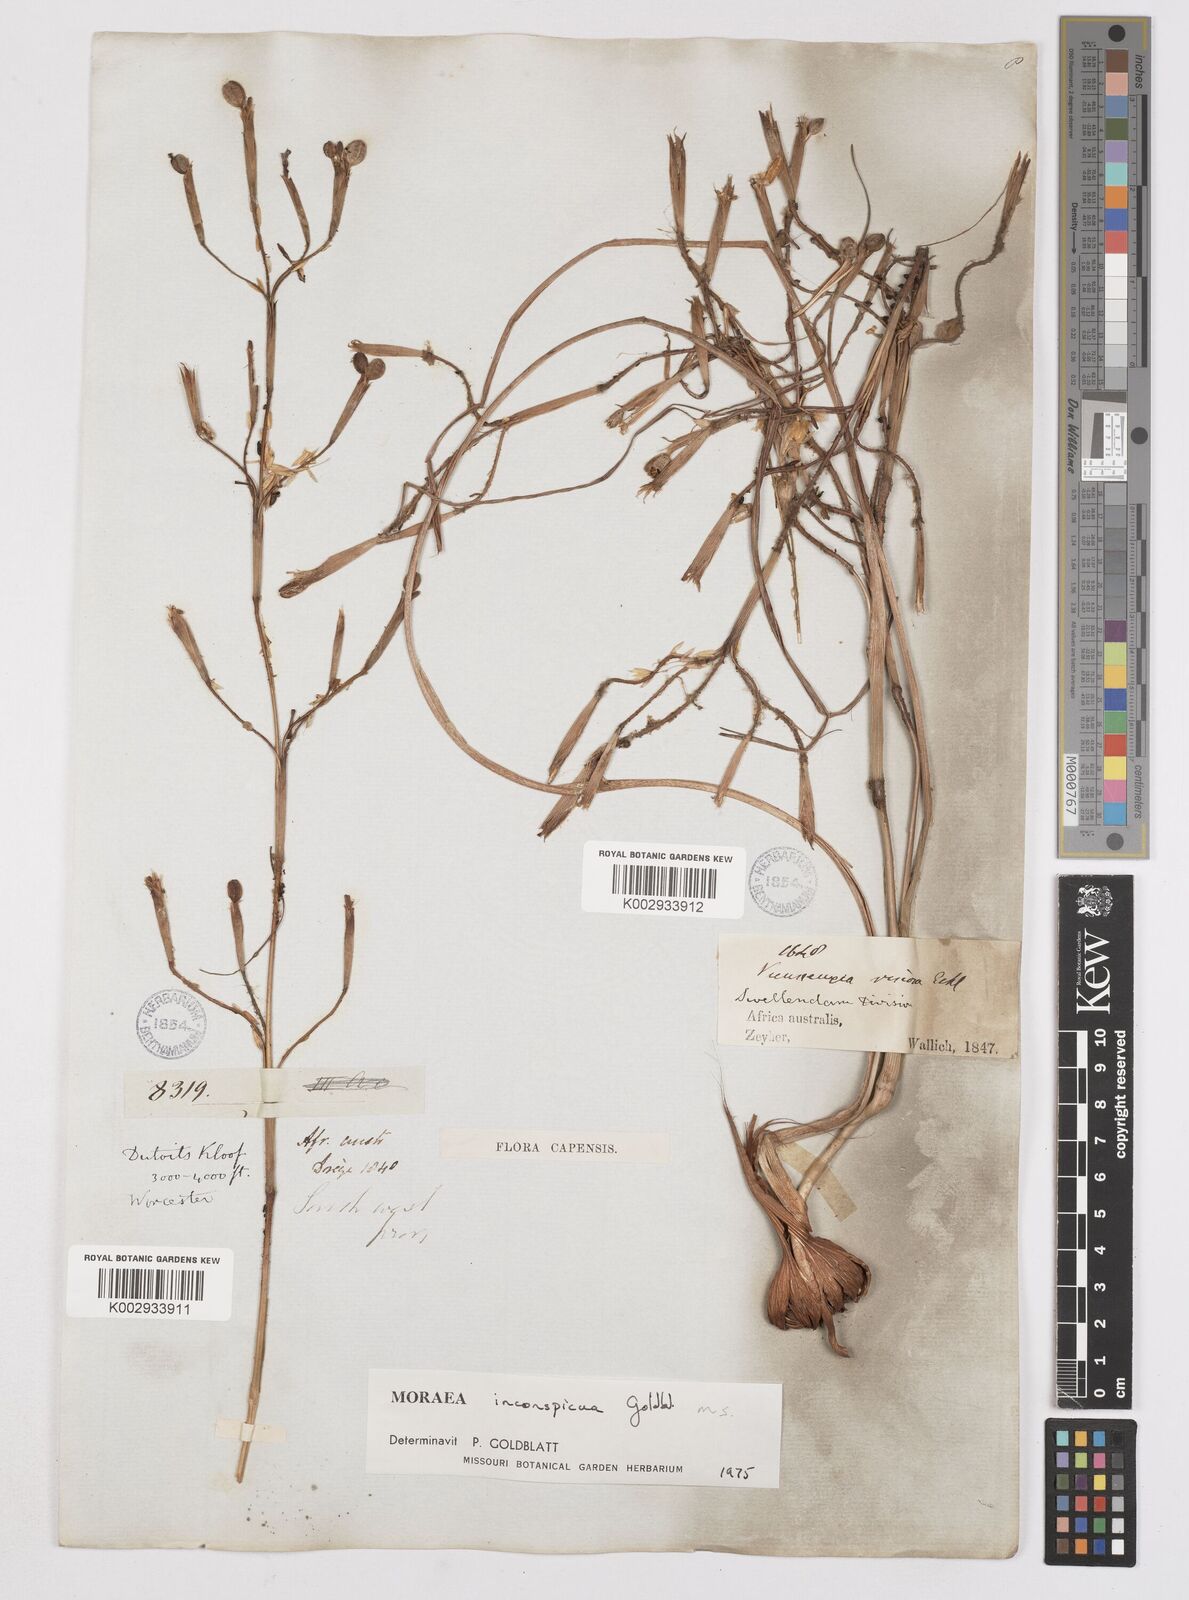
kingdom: Plantae
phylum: Tracheophyta
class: Liliopsida
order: Asparagales
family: Iridaceae
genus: Moraea
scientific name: Moraea inconspicua
